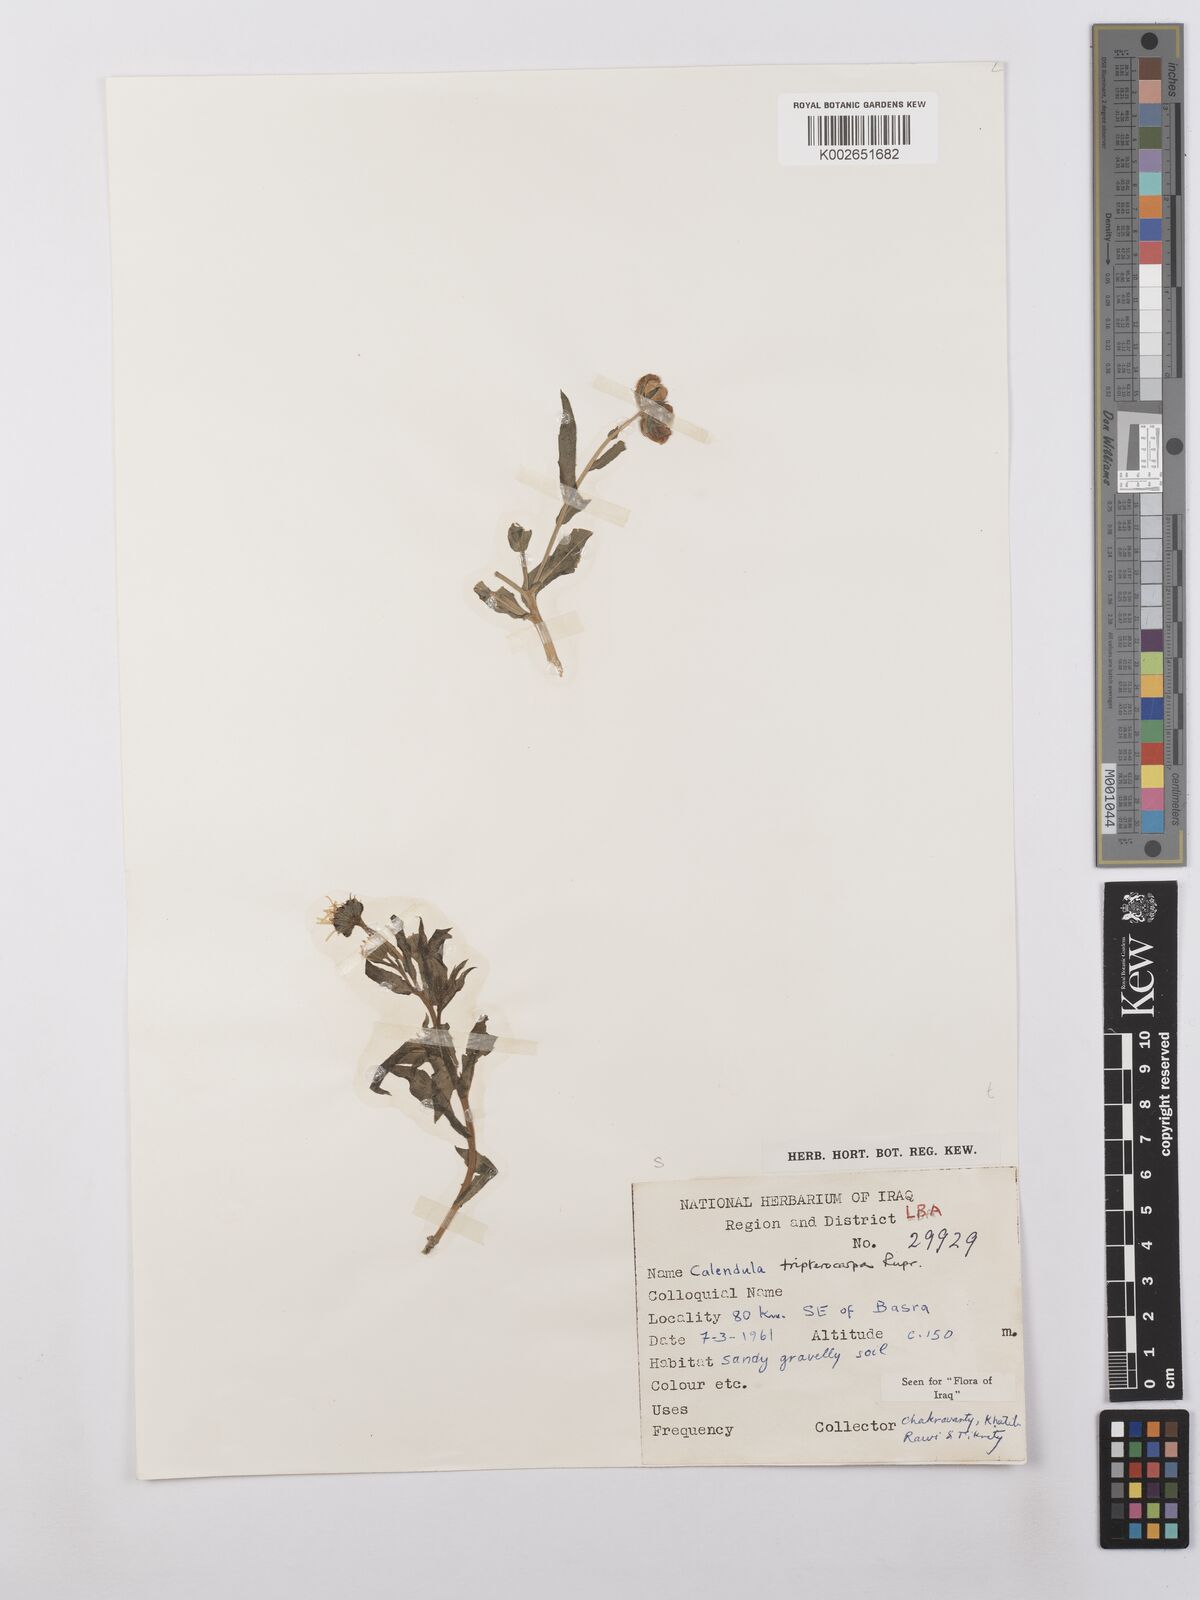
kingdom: Plantae
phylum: Tracheophyta
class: Magnoliopsida
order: Asterales
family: Asteraceae
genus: Calendula
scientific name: Calendula tripterocarpa
